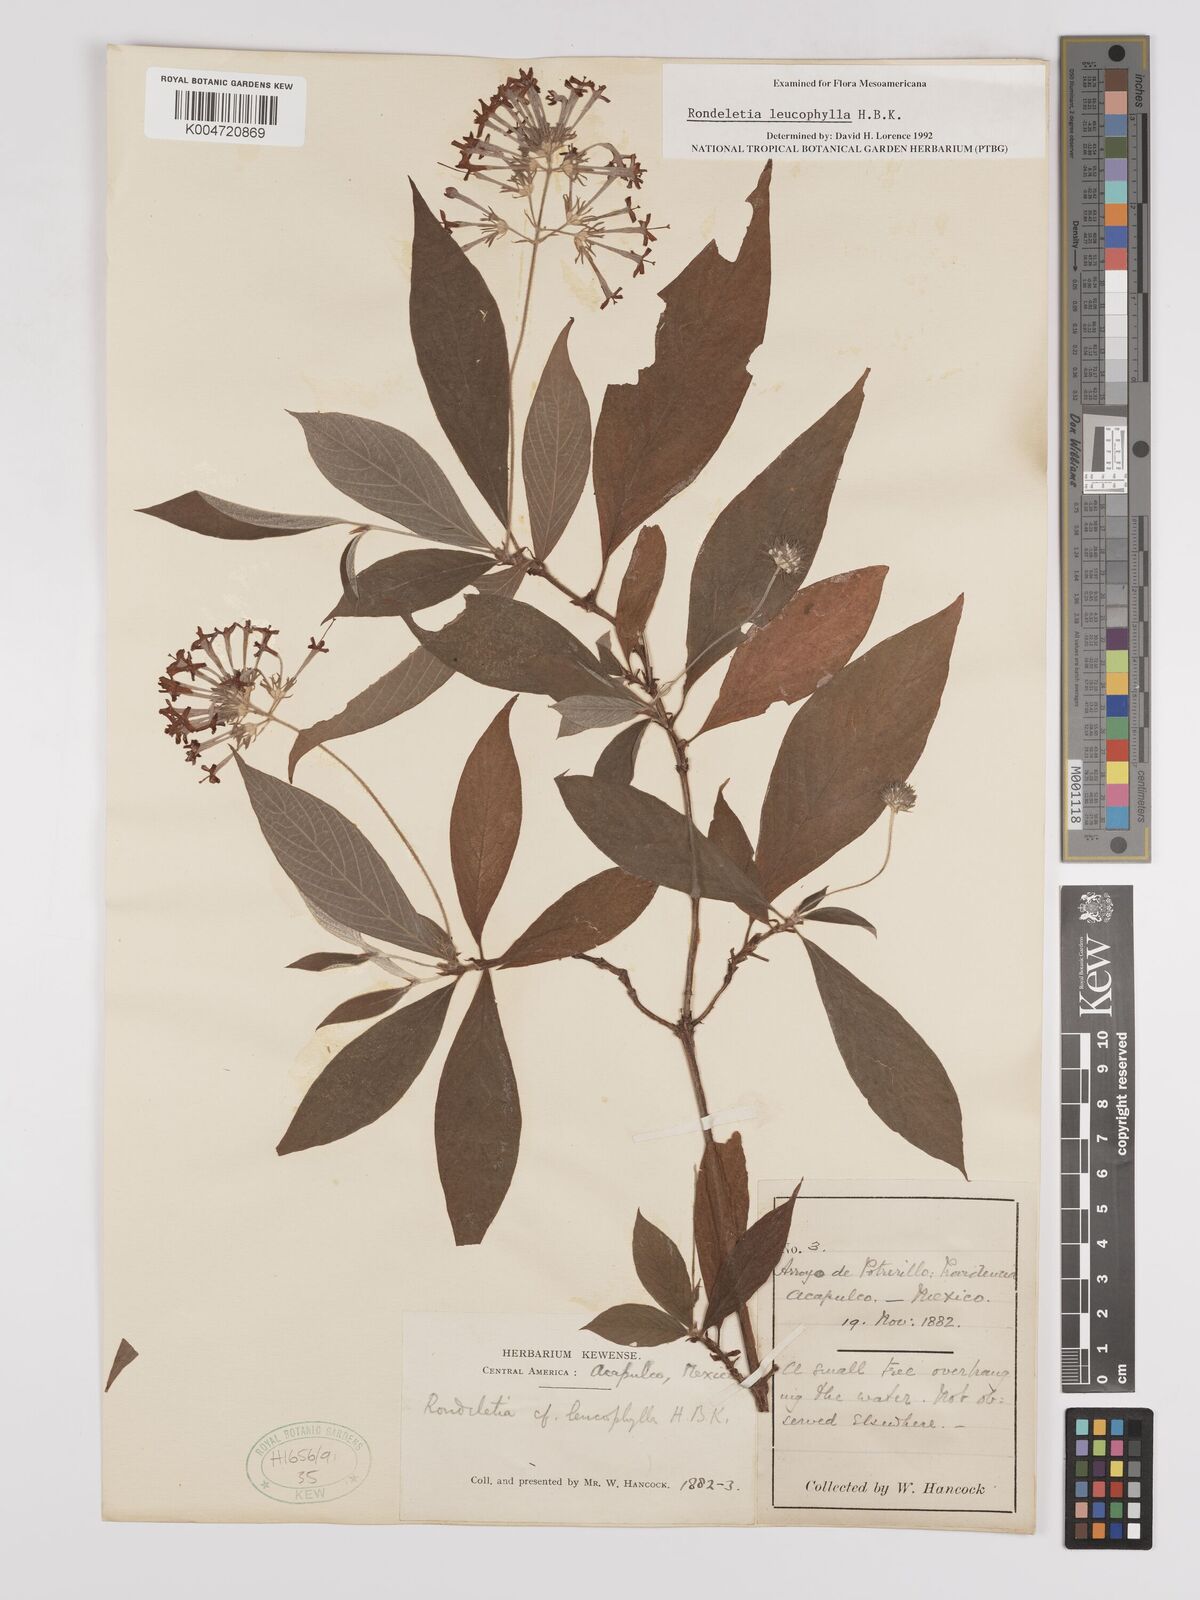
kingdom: Plantae
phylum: Tracheophyta
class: Magnoliopsida
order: Gentianales
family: Rubiaceae
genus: Arachnothryx
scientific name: Arachnothryx leucophylla
